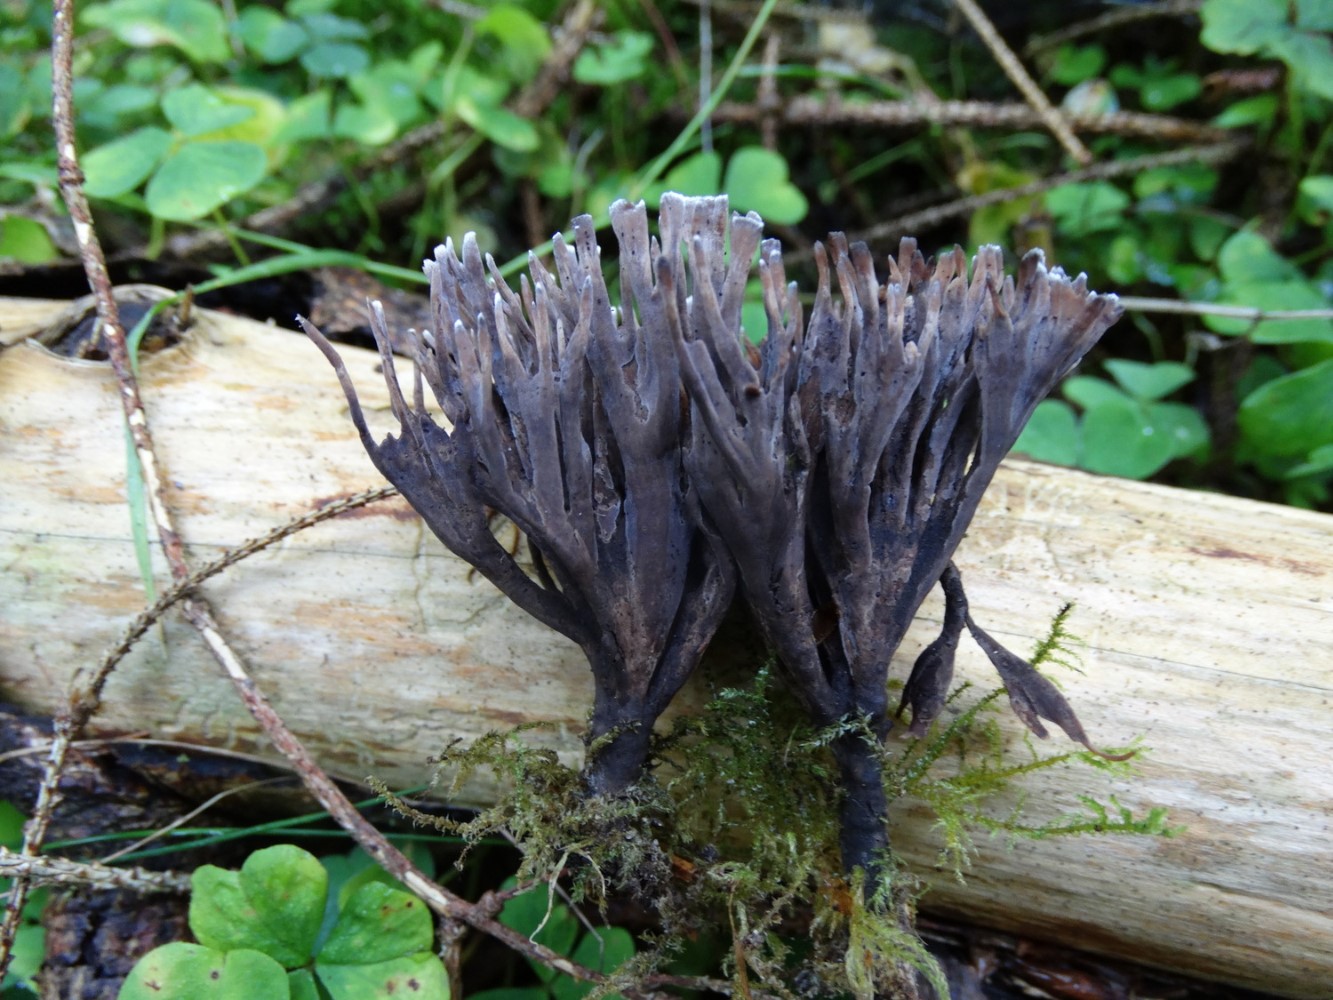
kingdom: Fungi
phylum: Basidiomycota
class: Agaricomycetes
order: Thelephorales
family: Thelephoraceae
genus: Thelephora
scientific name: Thelephora palmata
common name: grenet frynsesvamp
